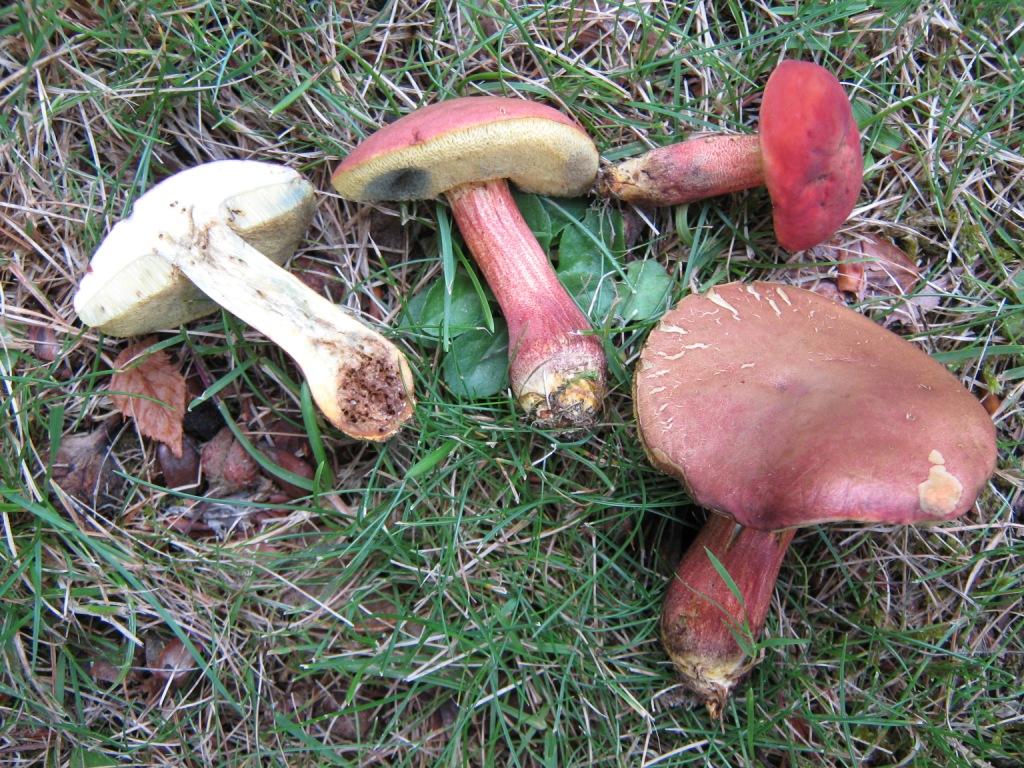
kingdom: Fungi
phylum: Basidiomycota
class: Agaricomycetes
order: Boletales
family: Boletaceae
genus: Hortiboletus
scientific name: Hortiboletus rubellus
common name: blodrød rørhat
